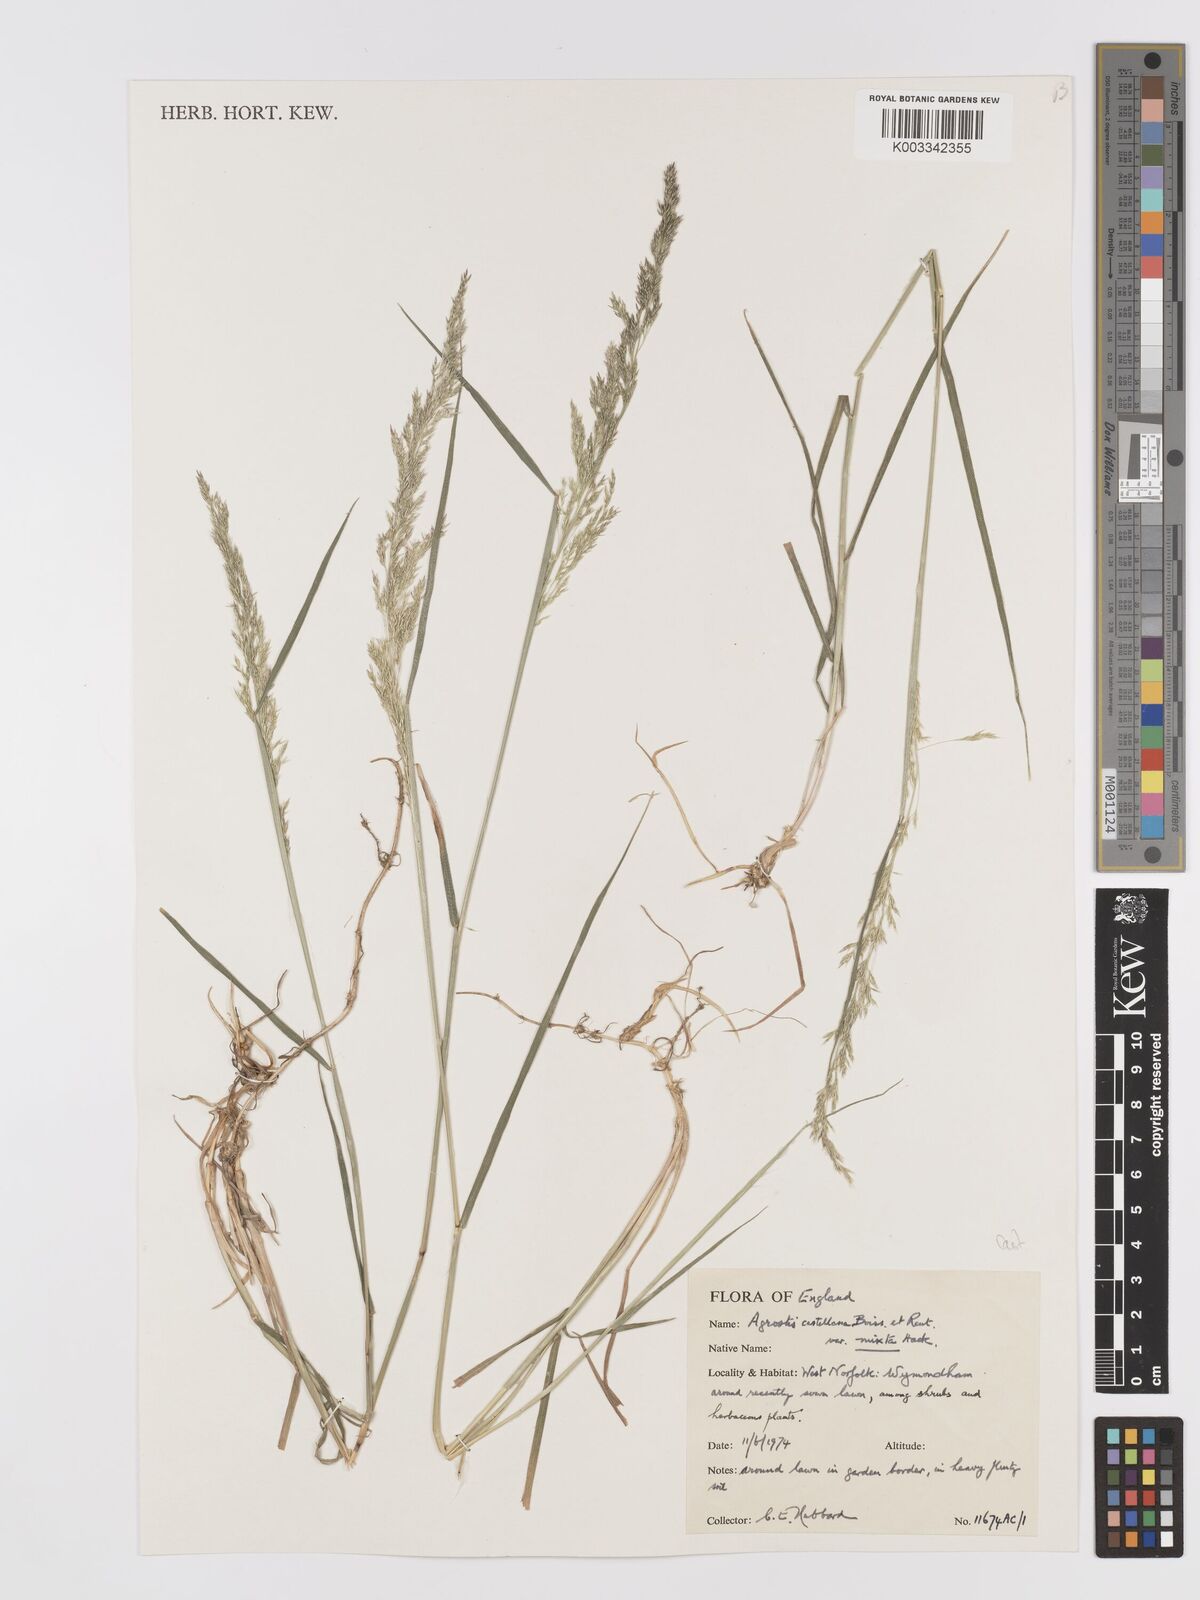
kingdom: Plantae
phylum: Tracheophyta
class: Liliopsida
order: Poales
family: Poaceae
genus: Agrostis
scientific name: Agrostis castellana
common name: Highland bent
